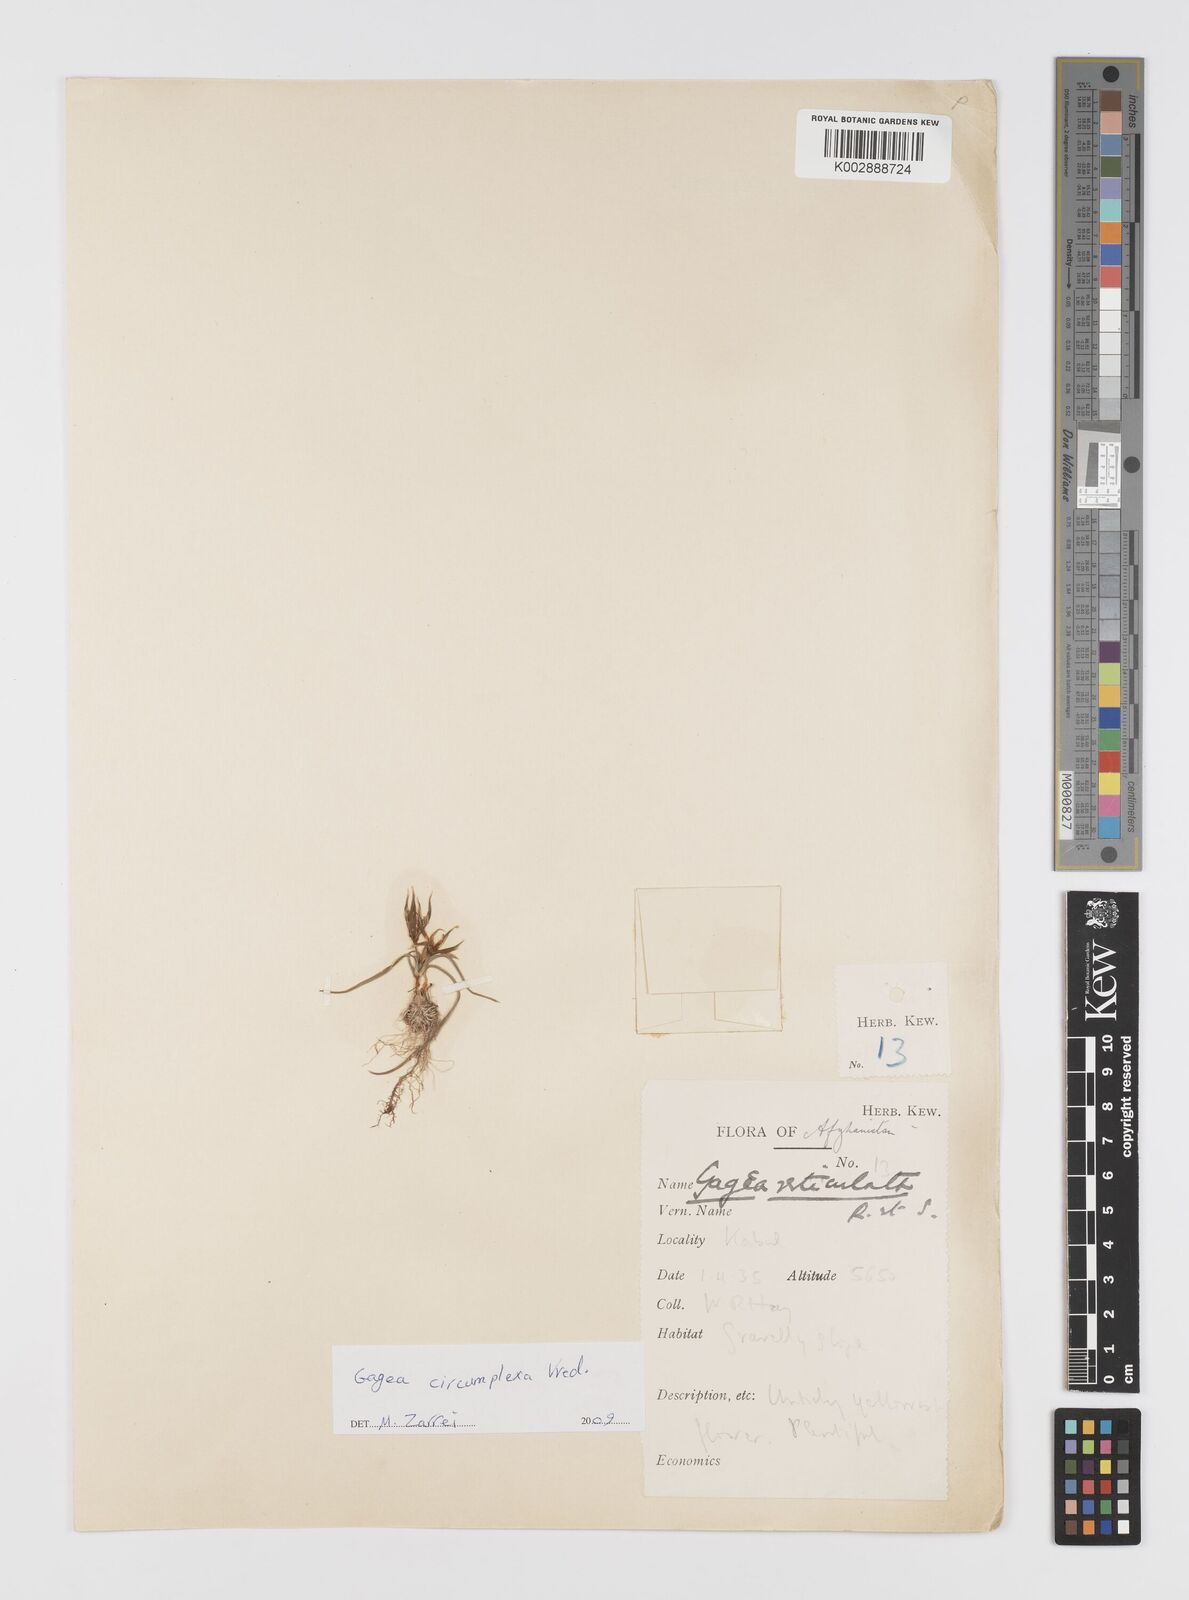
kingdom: Plantae
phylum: Tracheophyta
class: Liliopsida
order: Liliales
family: Liliaceae
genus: Gagea
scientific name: Gagea circumplexa
